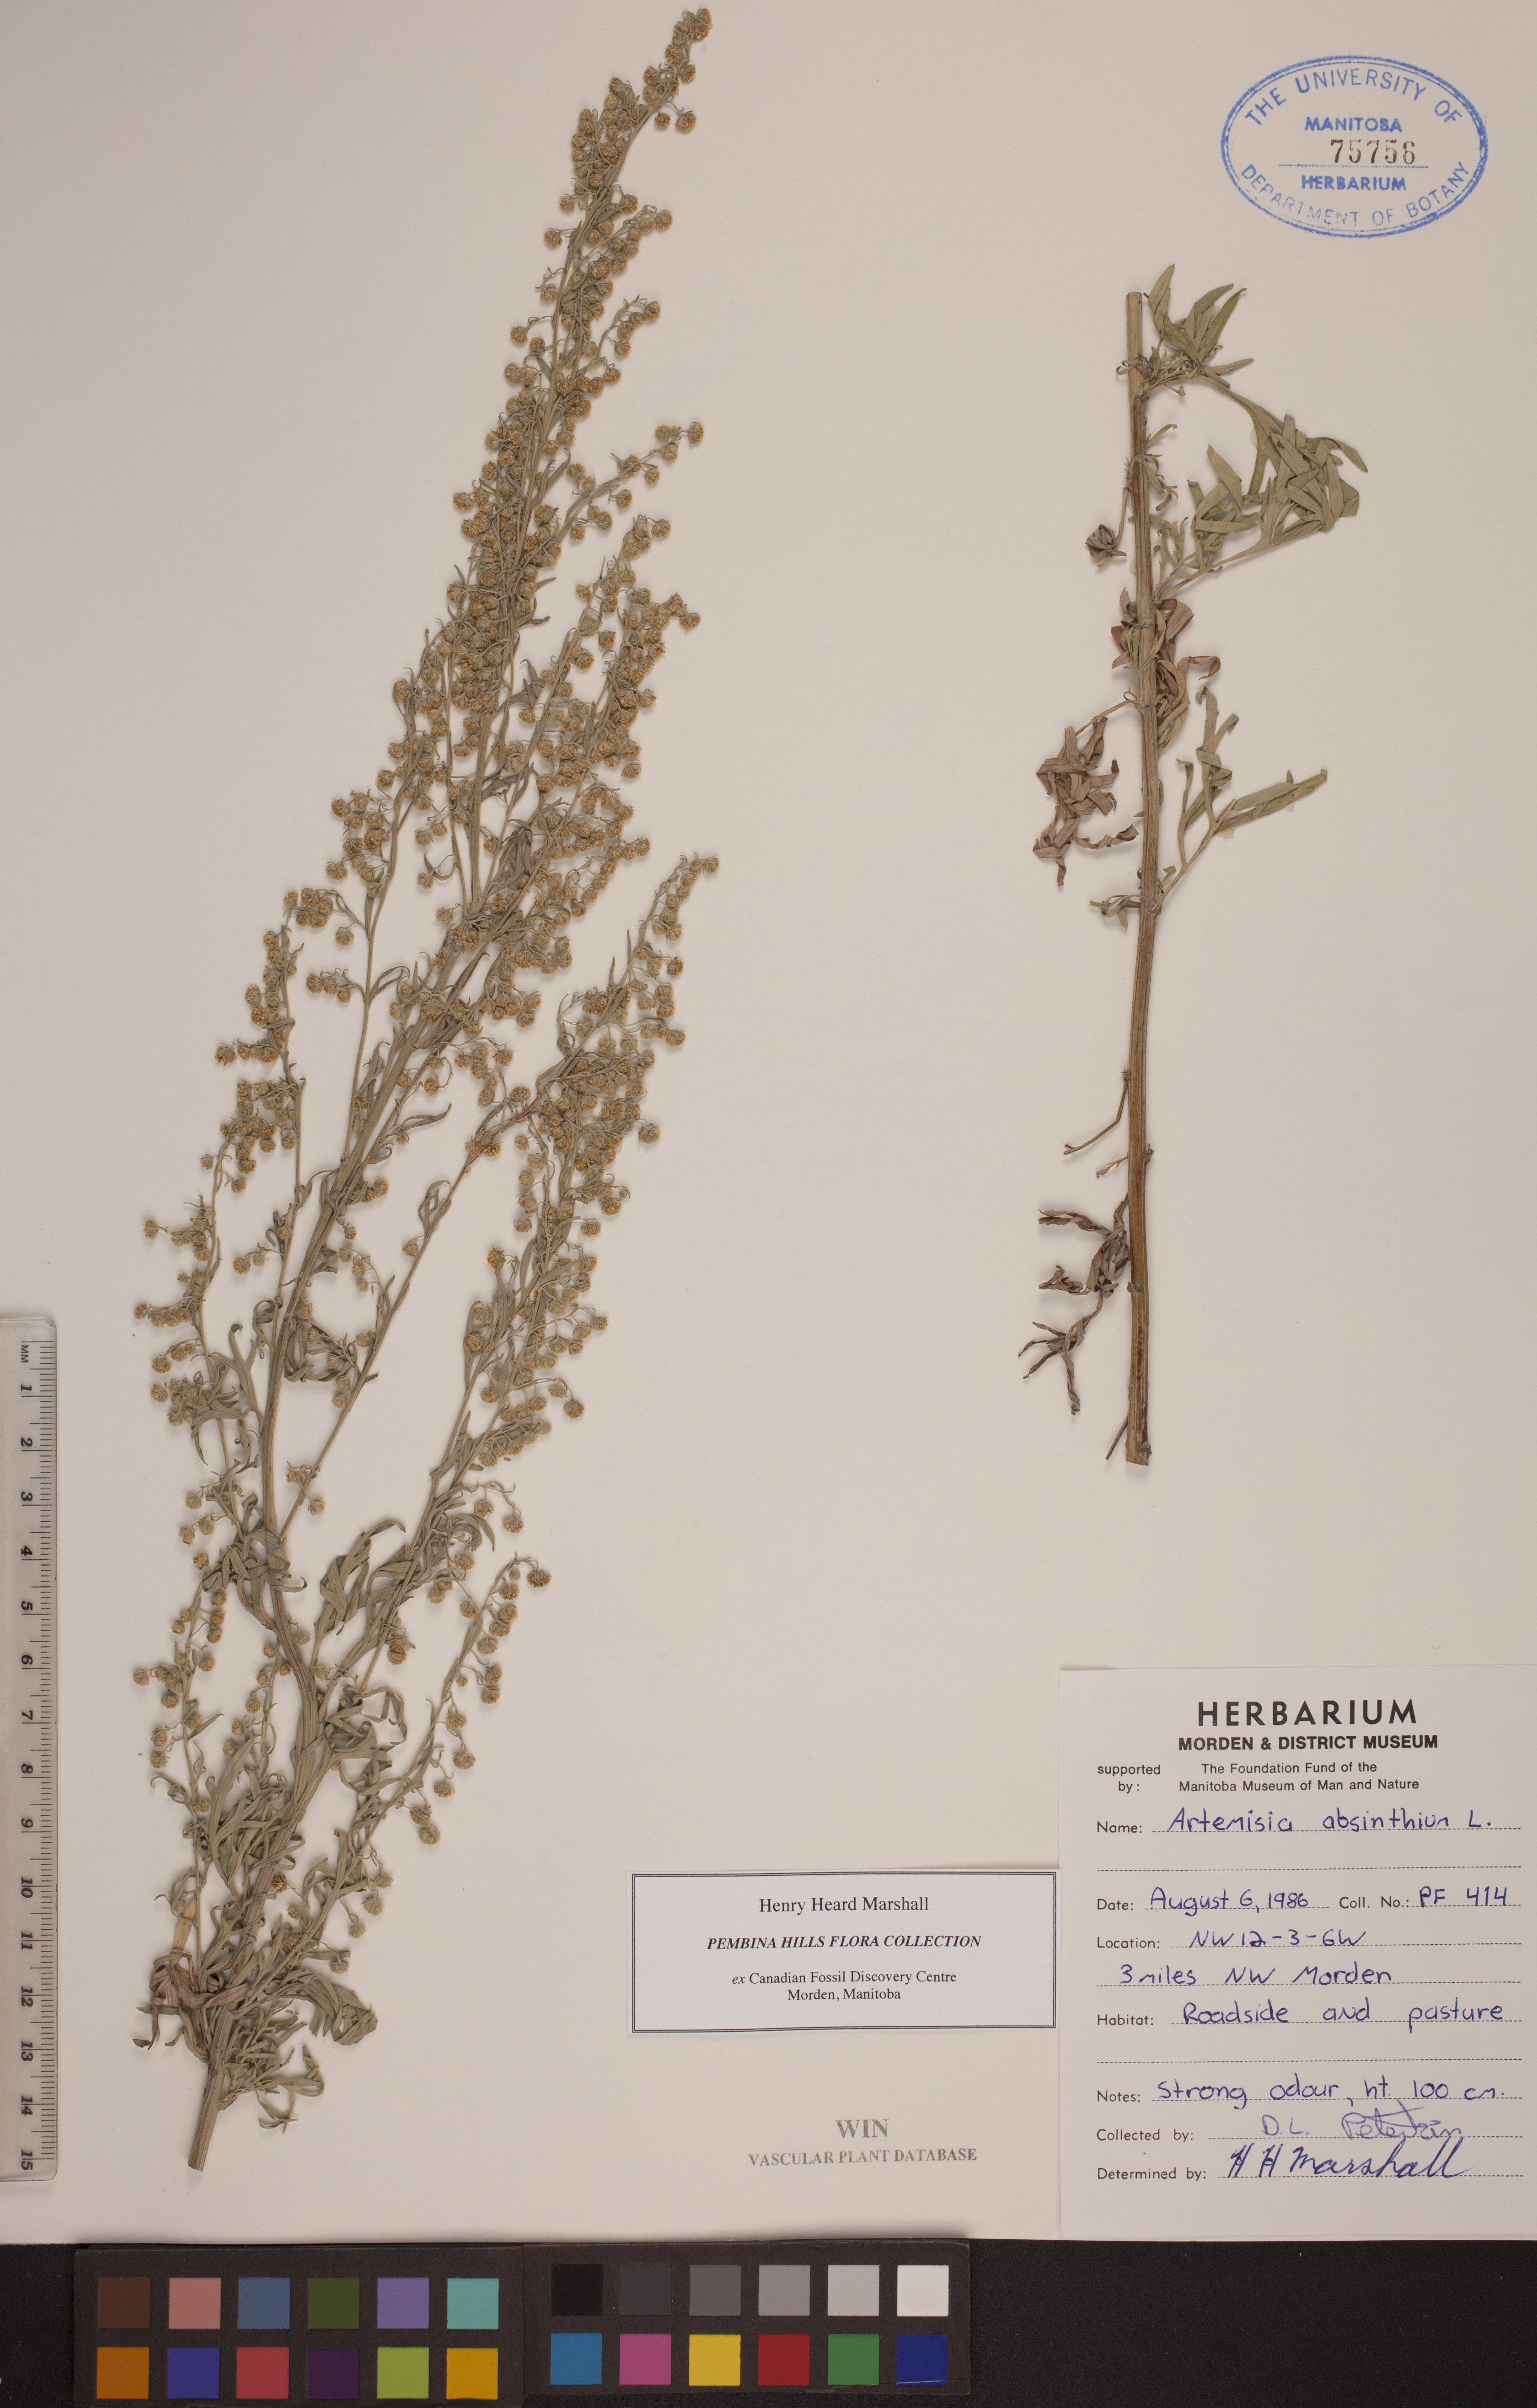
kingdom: Plantae
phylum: Tracheophyta
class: Magnoliopsida
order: Asterales
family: Asteraceae
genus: Artemisia
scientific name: Artemisia absinthium
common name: Wormwood
